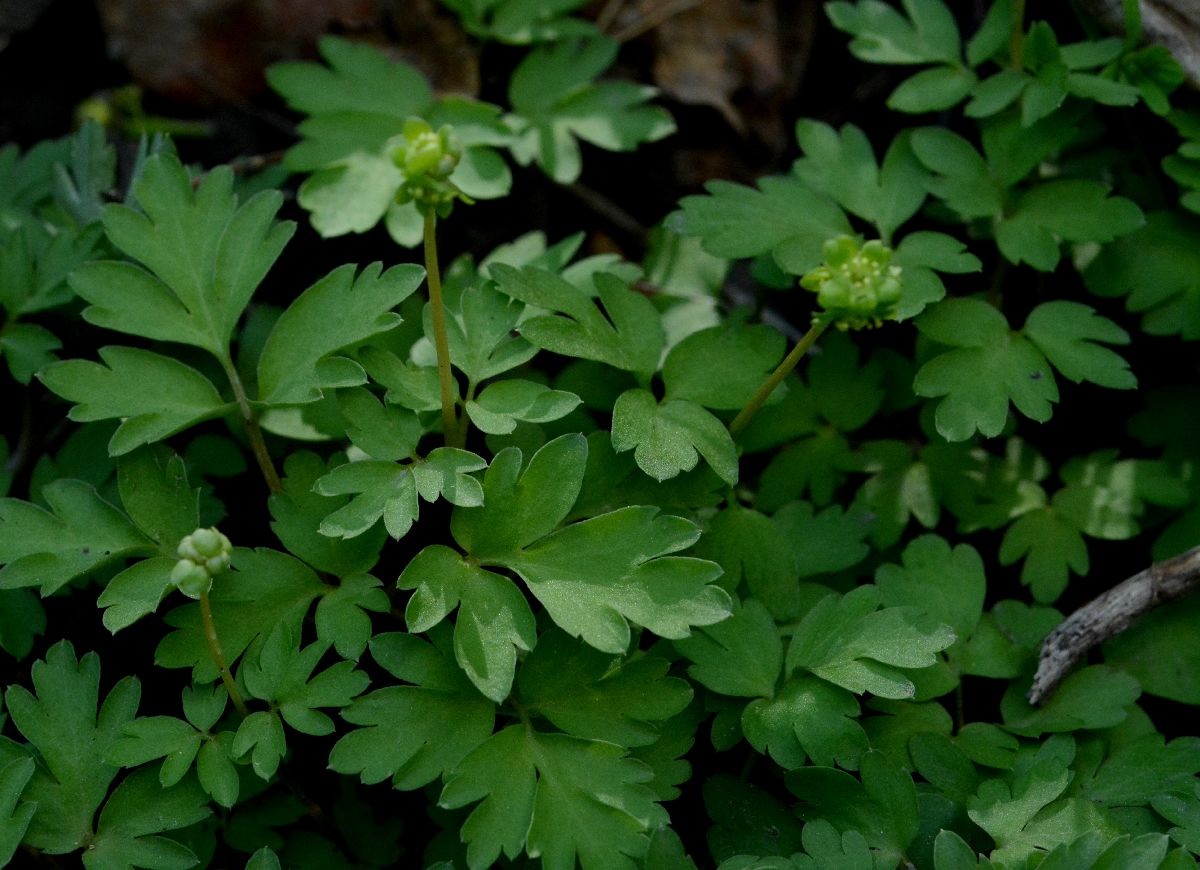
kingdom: Plantae
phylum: Tracheophyta
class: Magnoliopsida
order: Dipsacales
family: Viburnaceae
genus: Adoxa
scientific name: Adoxa moschatellina
